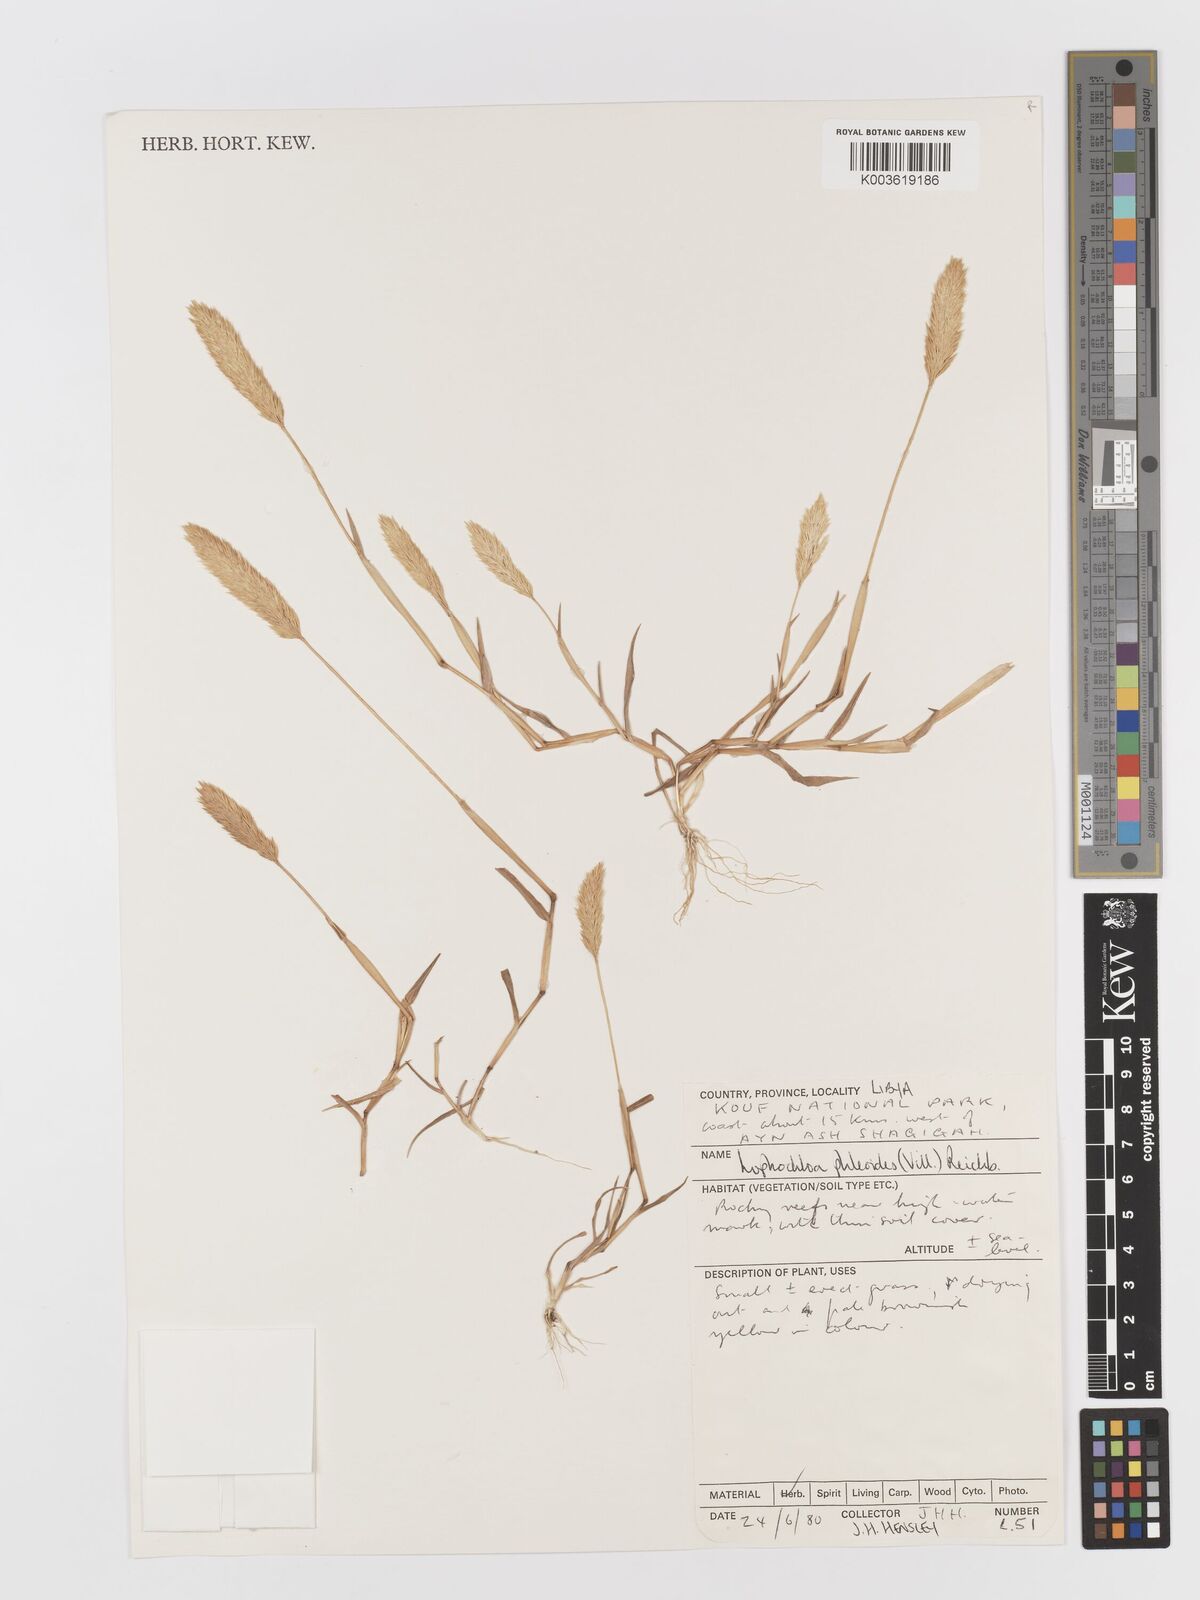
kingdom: Plantae
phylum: Tracheophyta
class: Liliopsida
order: Poales
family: Poaceae
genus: Rostraria
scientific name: Rostraria cristata
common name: Mediterranean hair-grass
